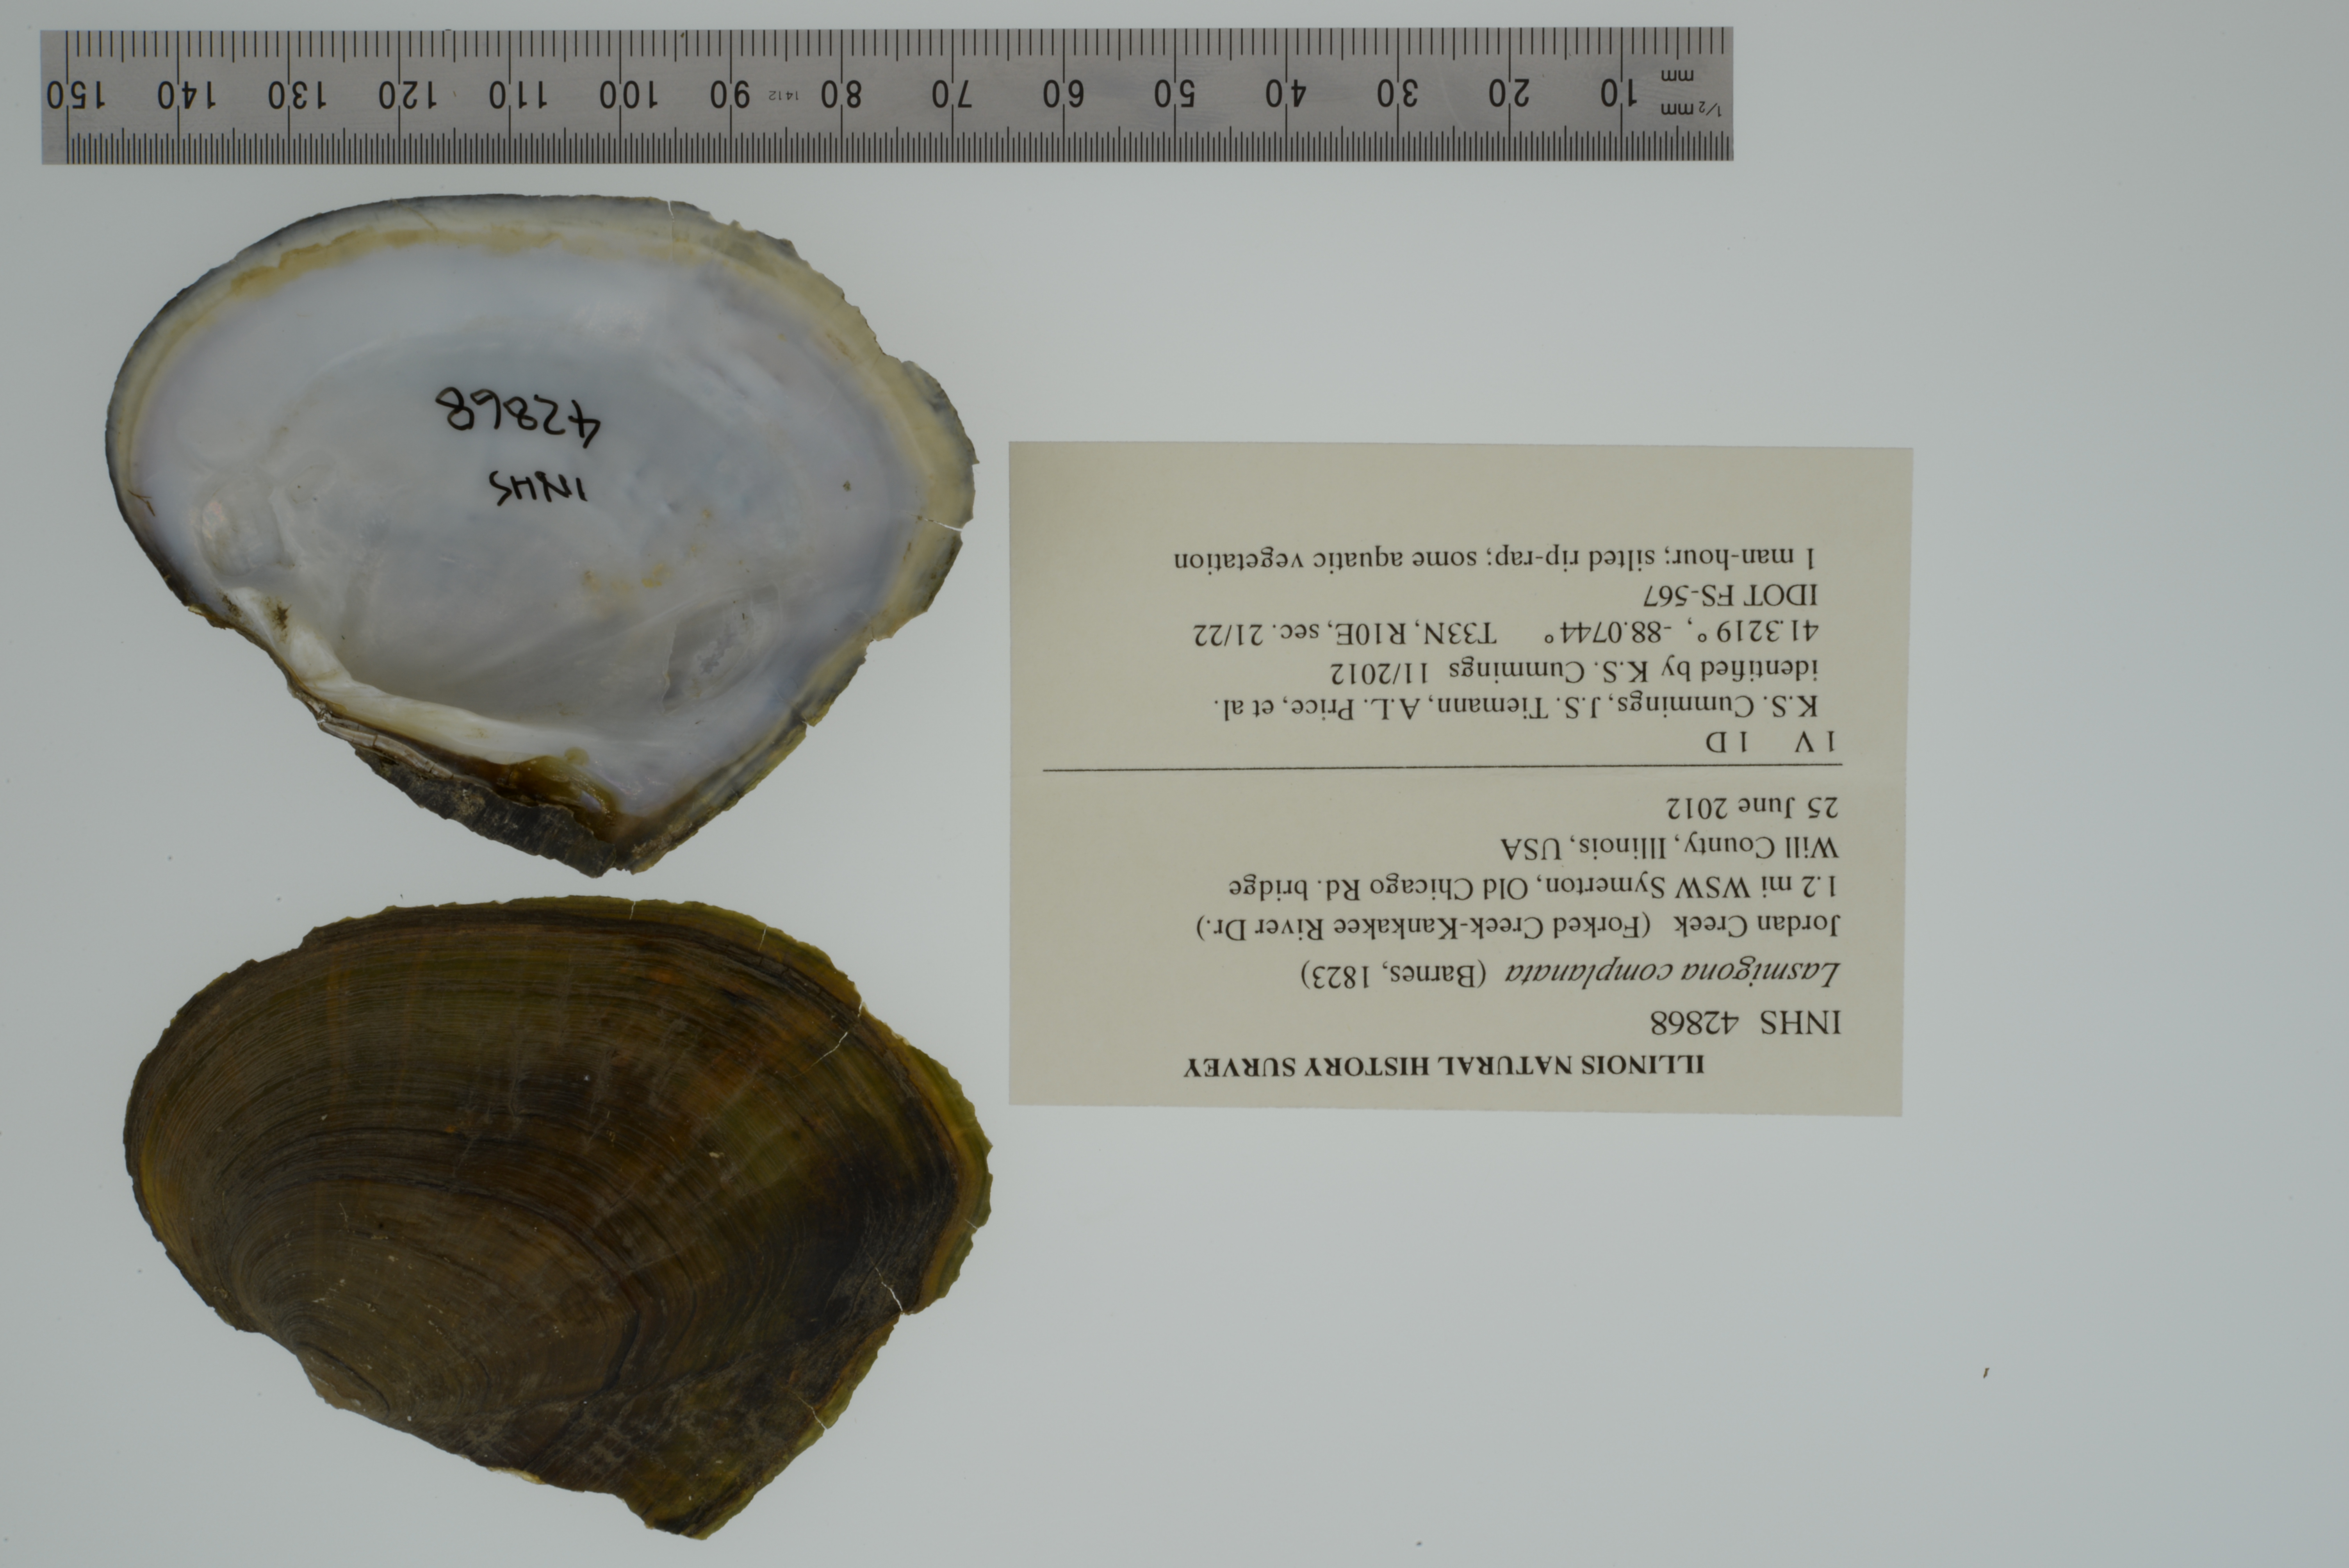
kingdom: Animalia
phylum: Mollusca
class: Bivalvia
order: Unionida
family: Unionidae
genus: Lasmigona
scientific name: Lasmigona complanata
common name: White heelsplitter
